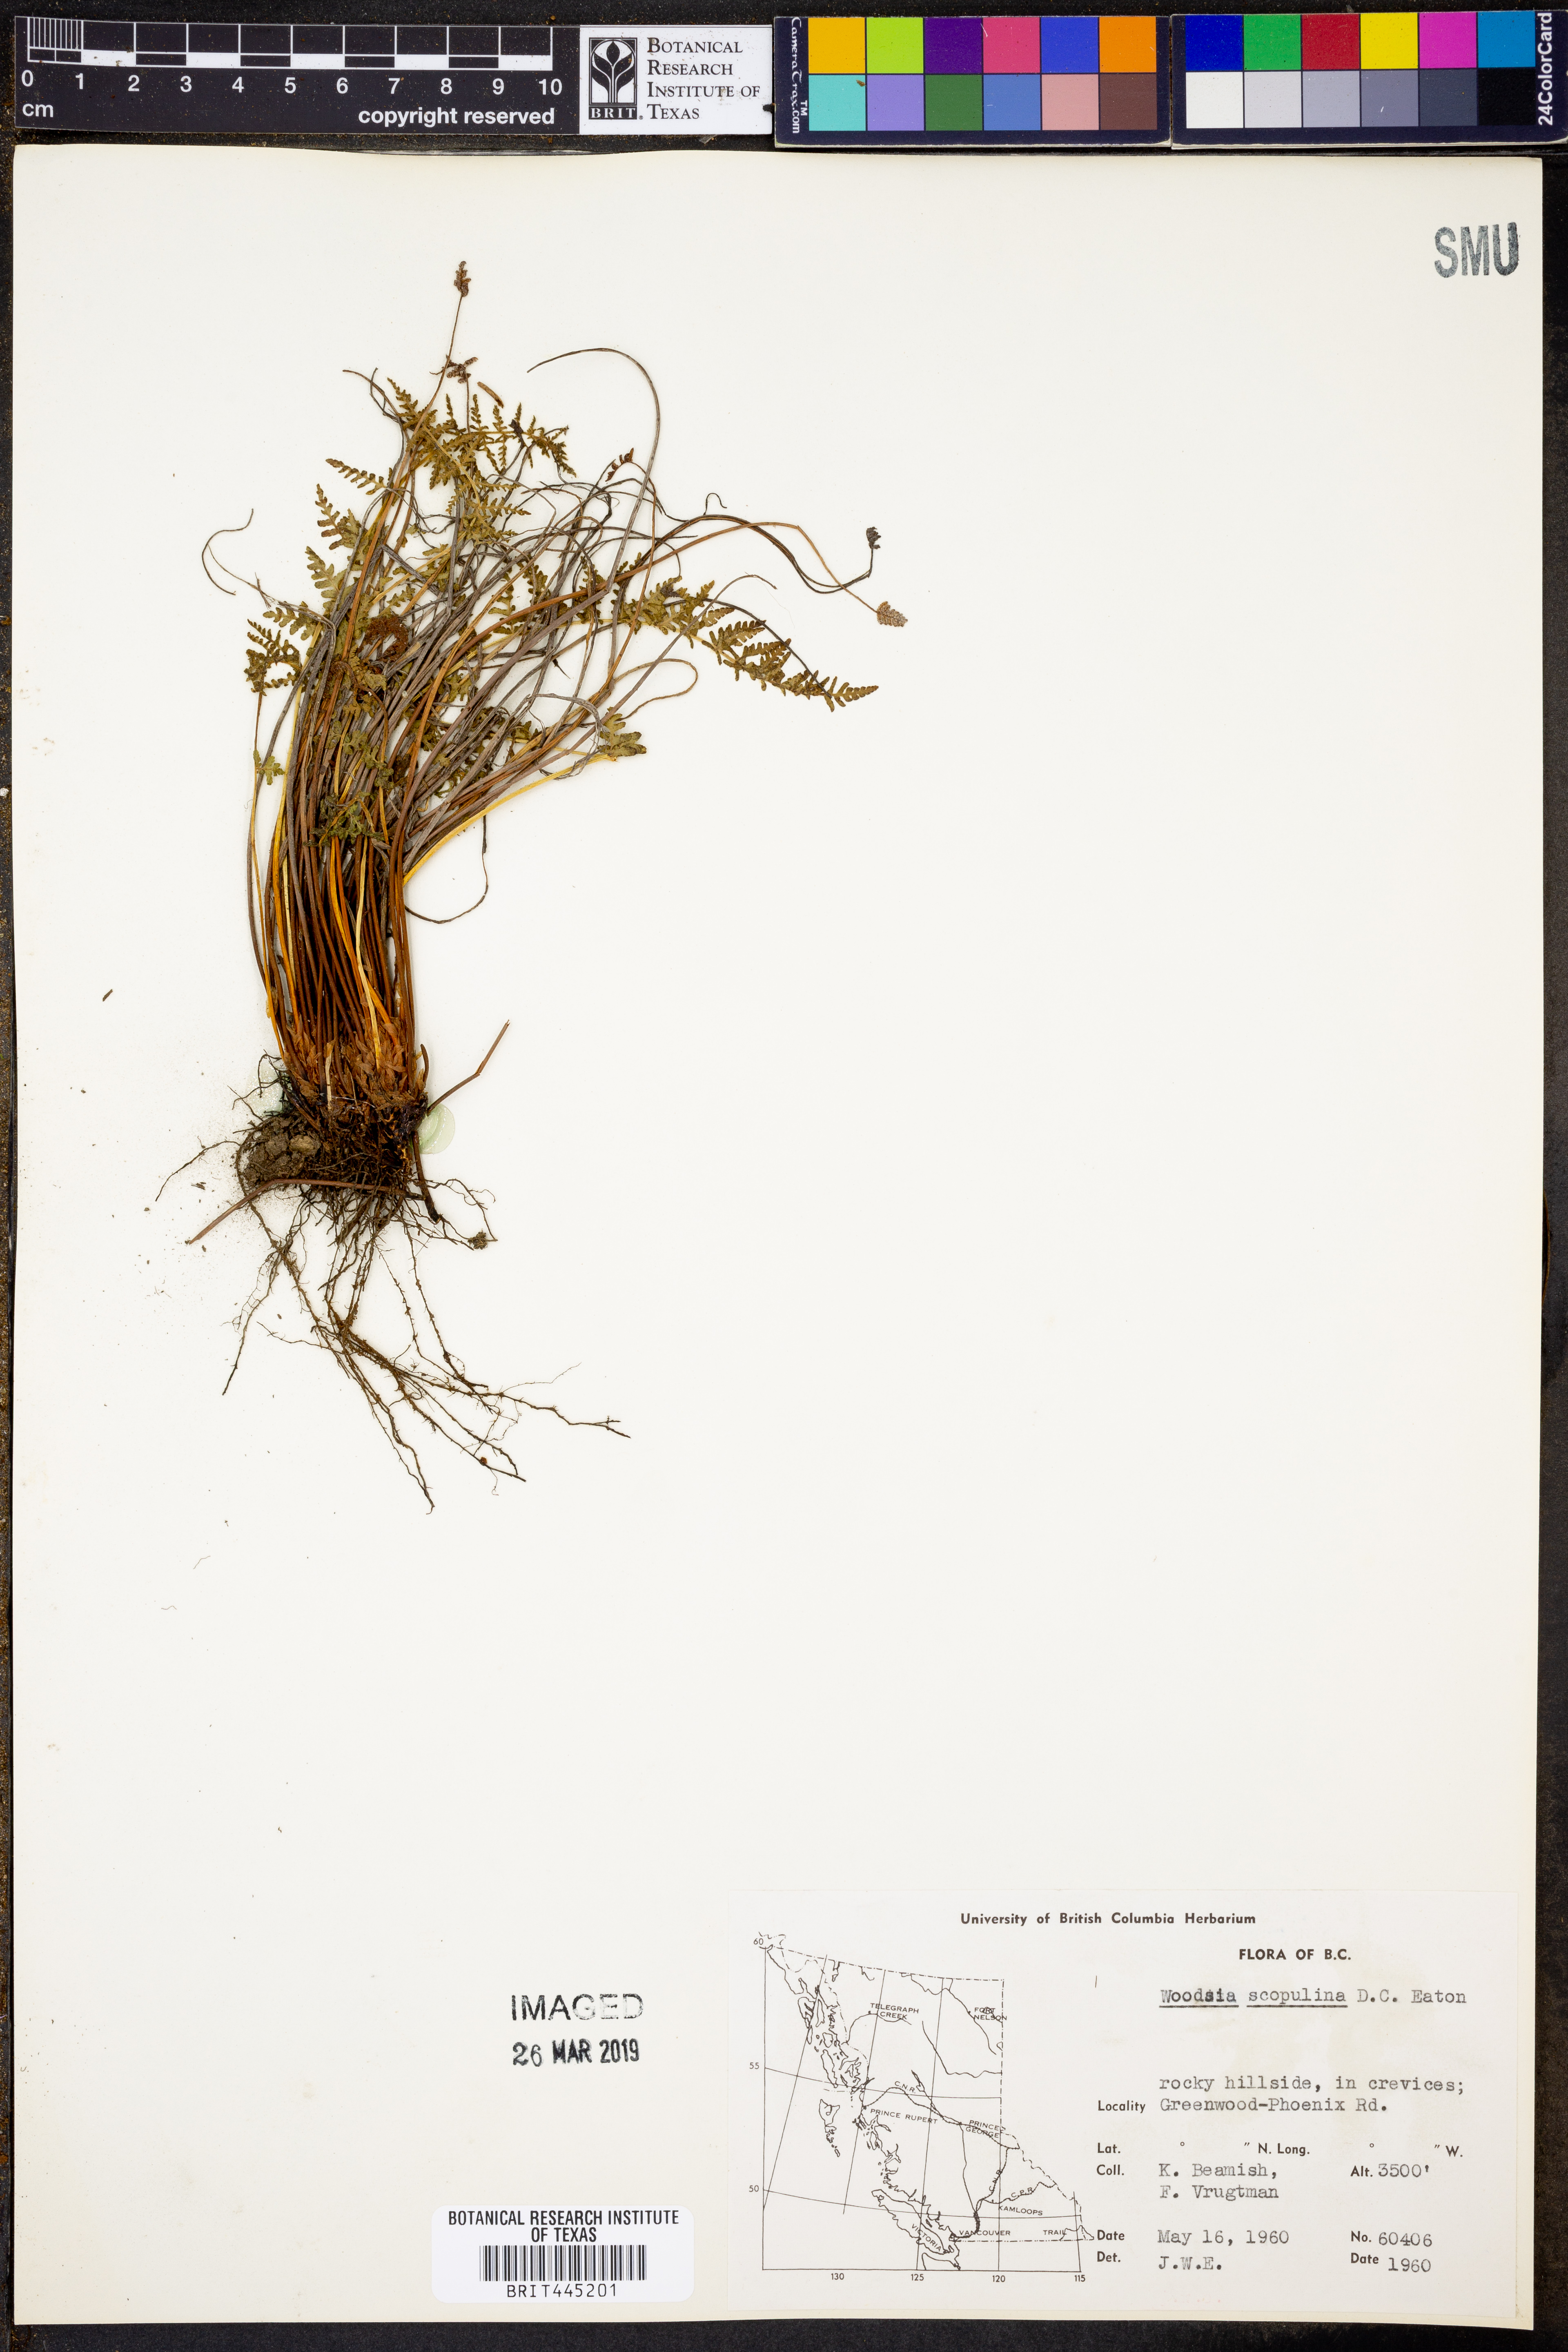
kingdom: Plantae
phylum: Tracheophyta
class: Polypodiopsida
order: Polypodiales
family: Woodsiaceae
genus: Physematium
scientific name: Physematium scopulinum
